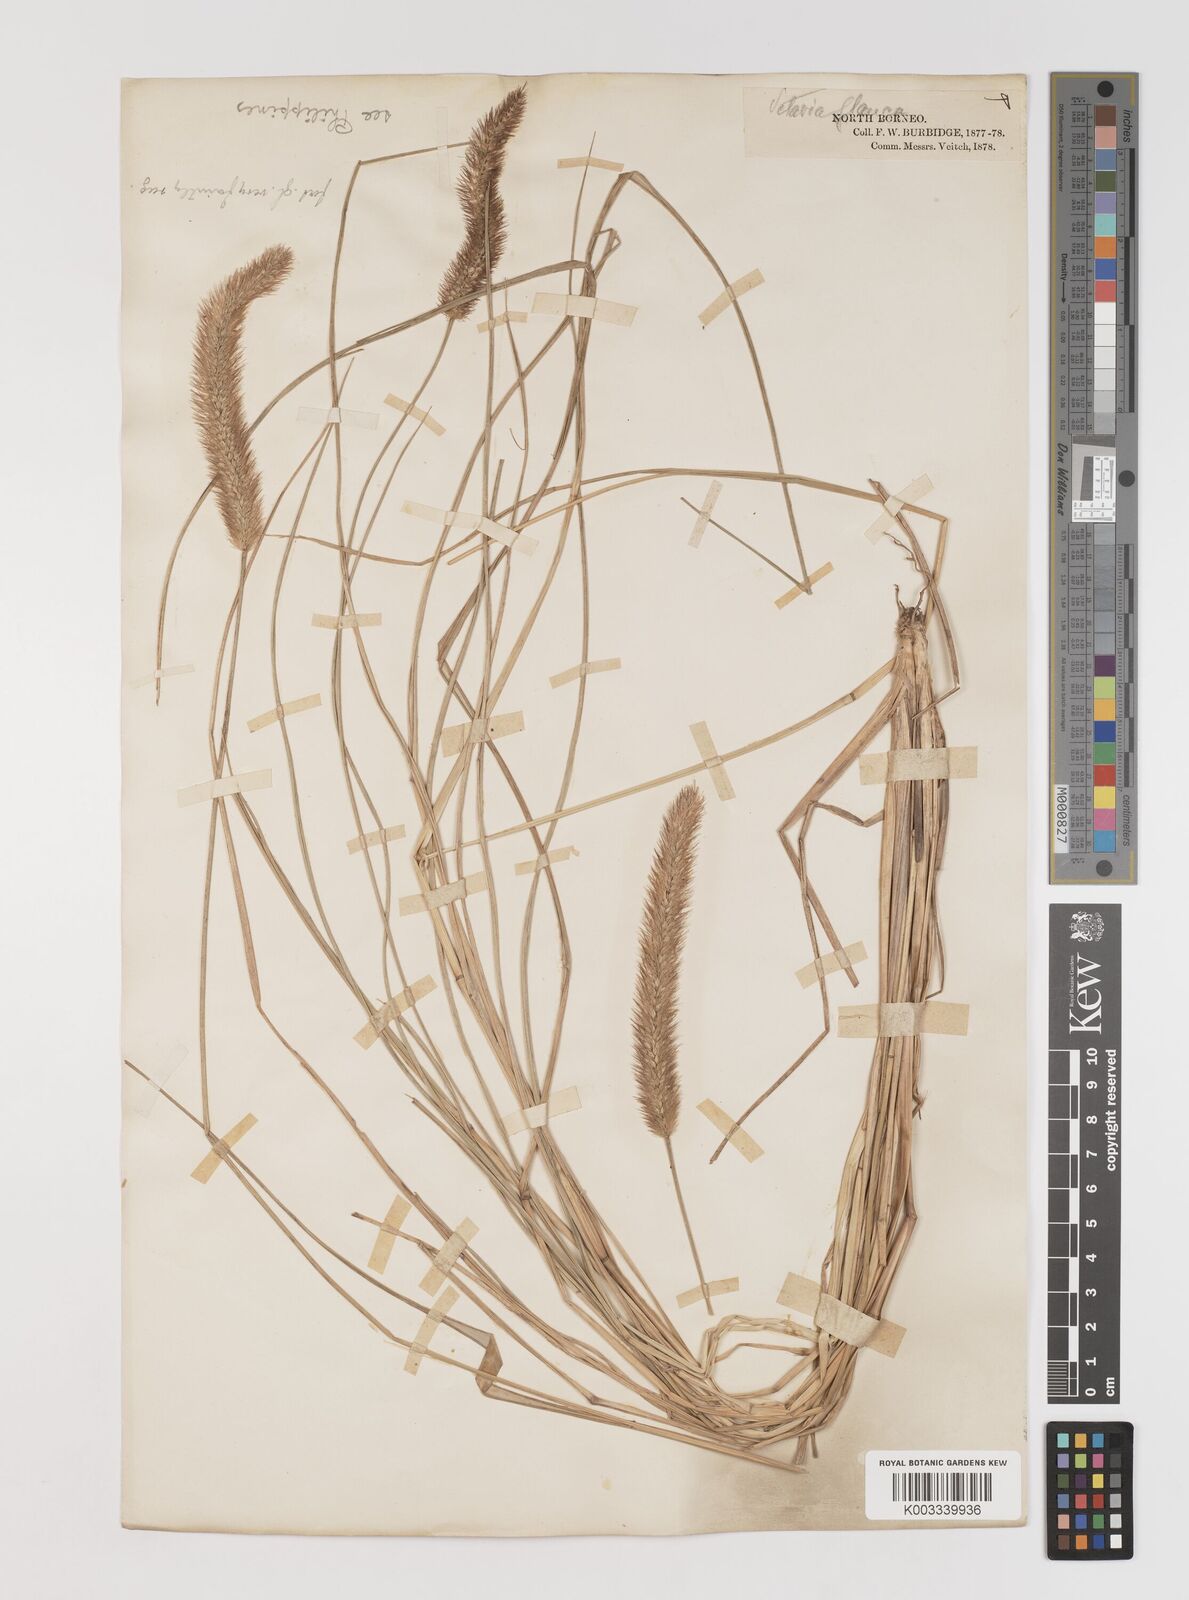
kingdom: Plantae
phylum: Tracheophyta
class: Liliopsida
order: Poales
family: Poaceae
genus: Setaria
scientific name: Setaria parviflora
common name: Knotroot bristle-grass
